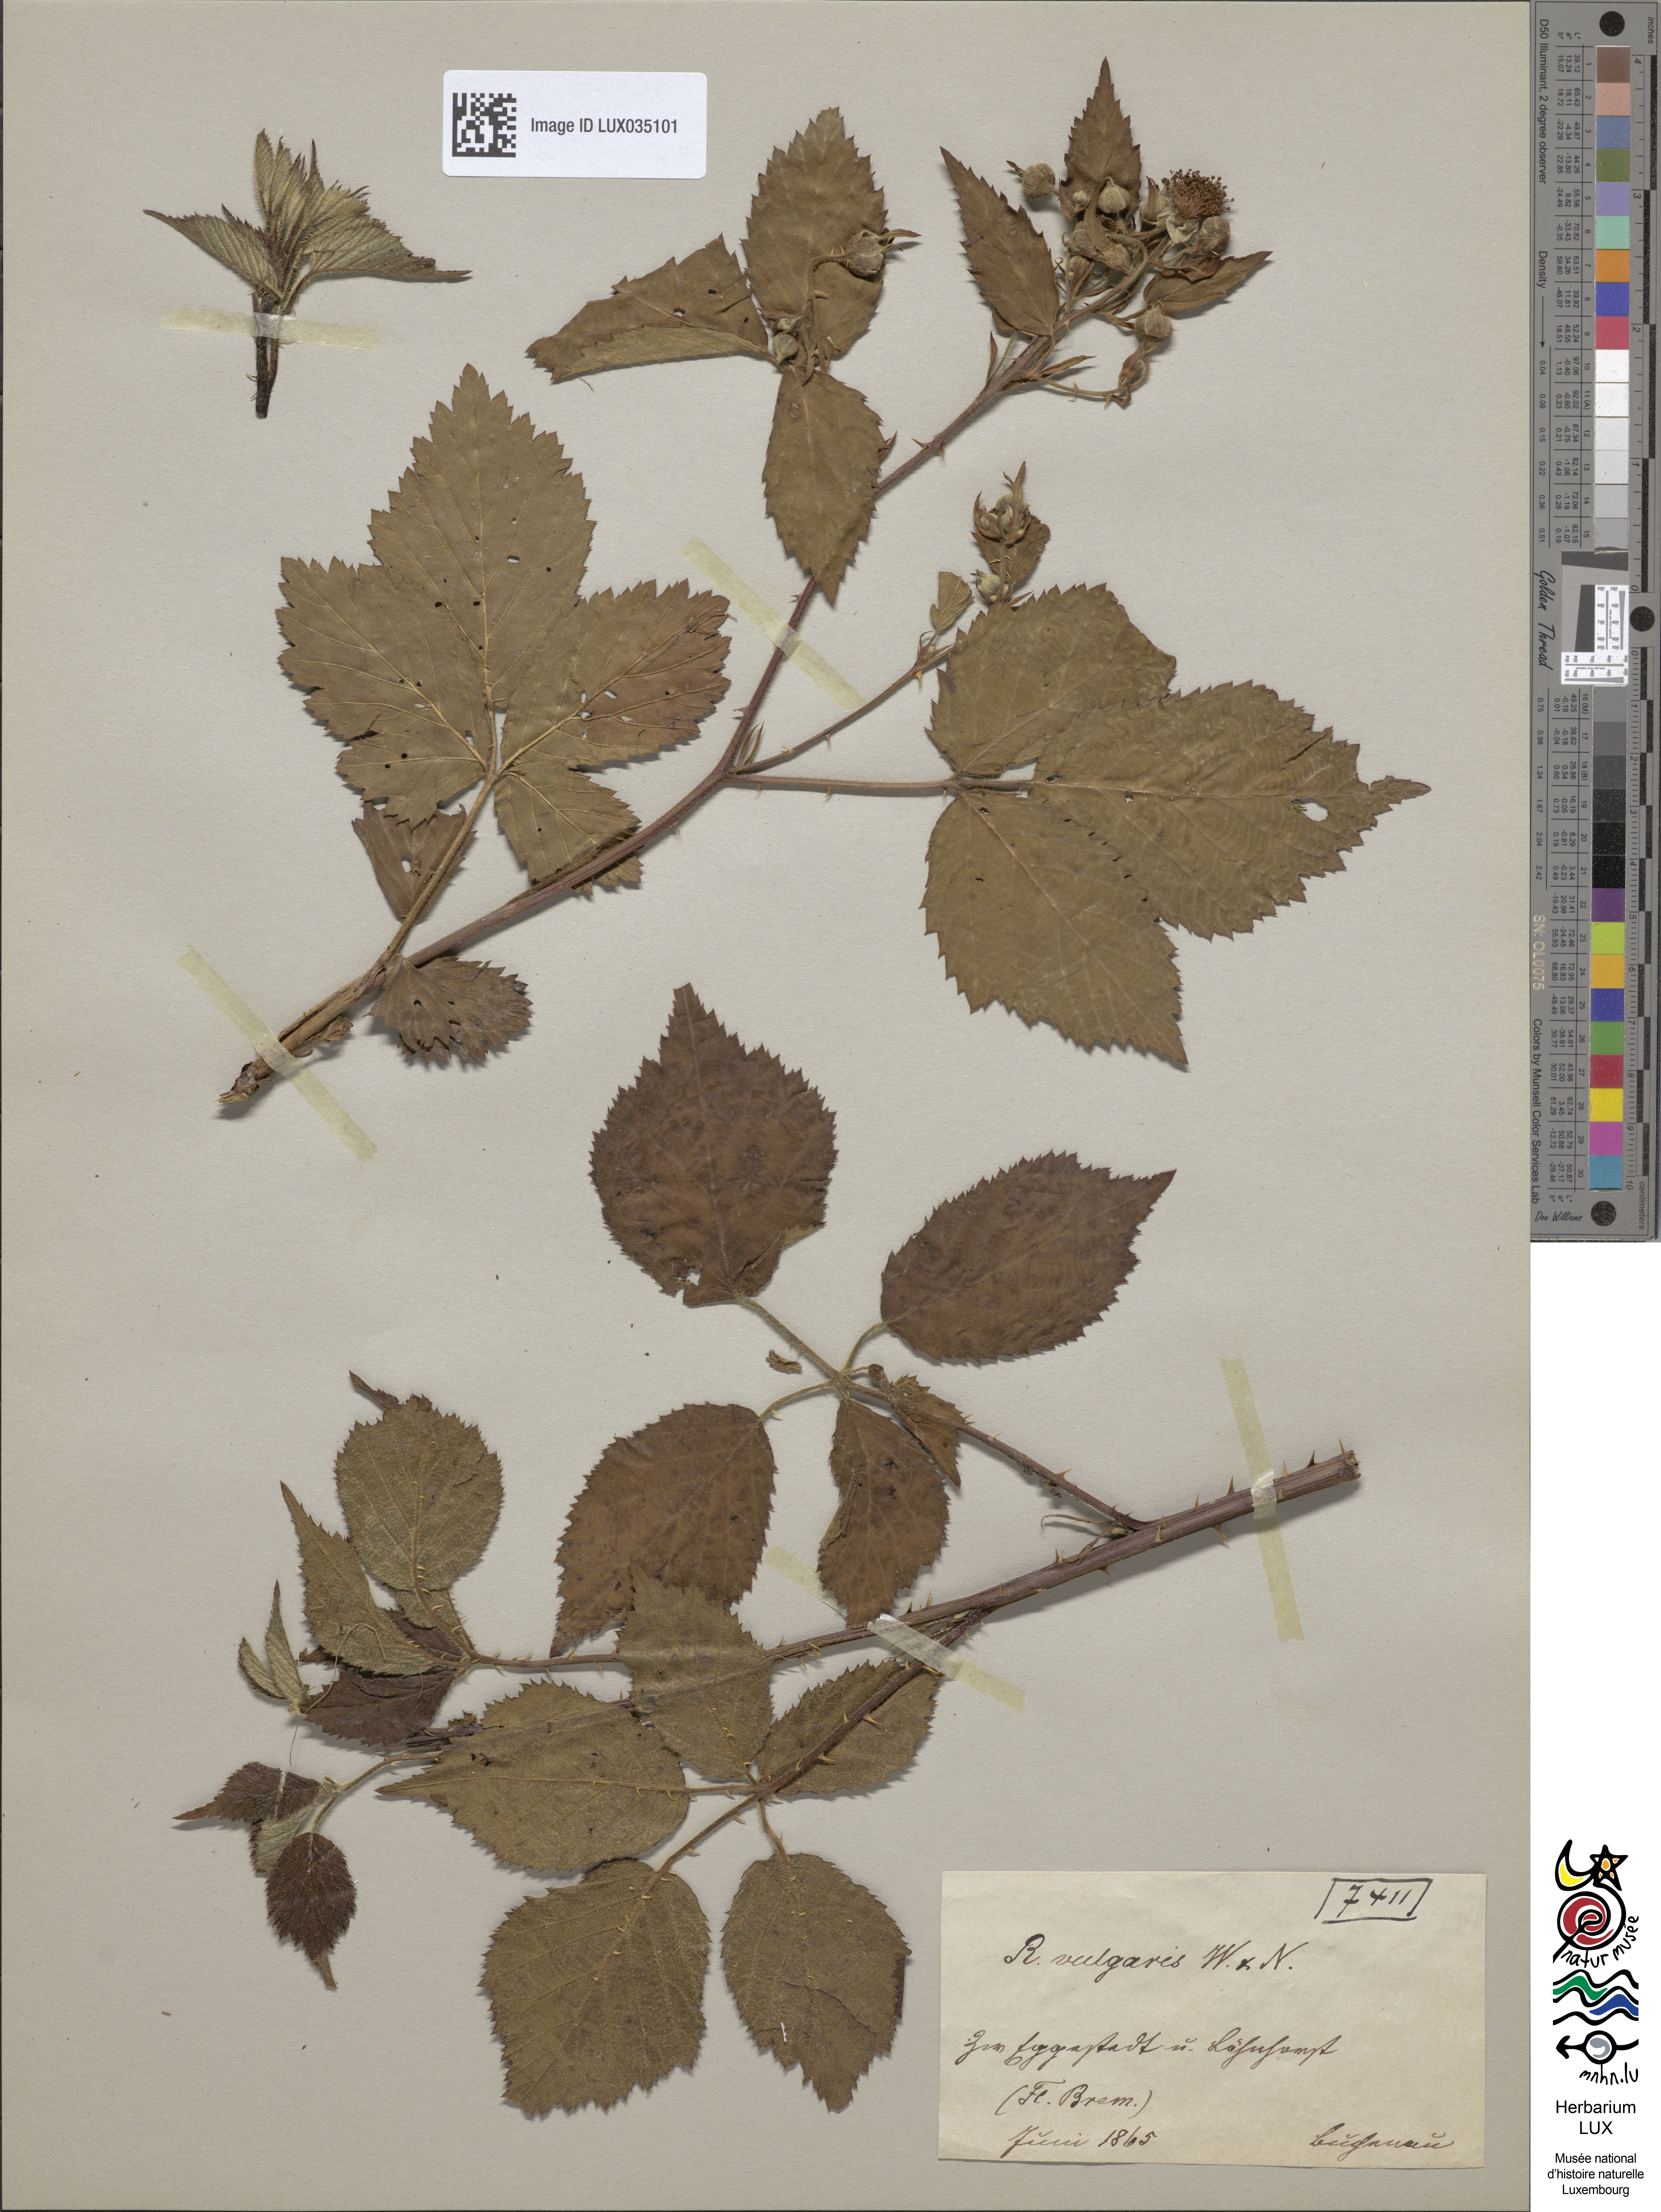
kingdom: Plantae
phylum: Tracheophyta
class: Magnoliopsida
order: Rosales
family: Rosaceae
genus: Rubus
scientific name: Rubus aschoffii
